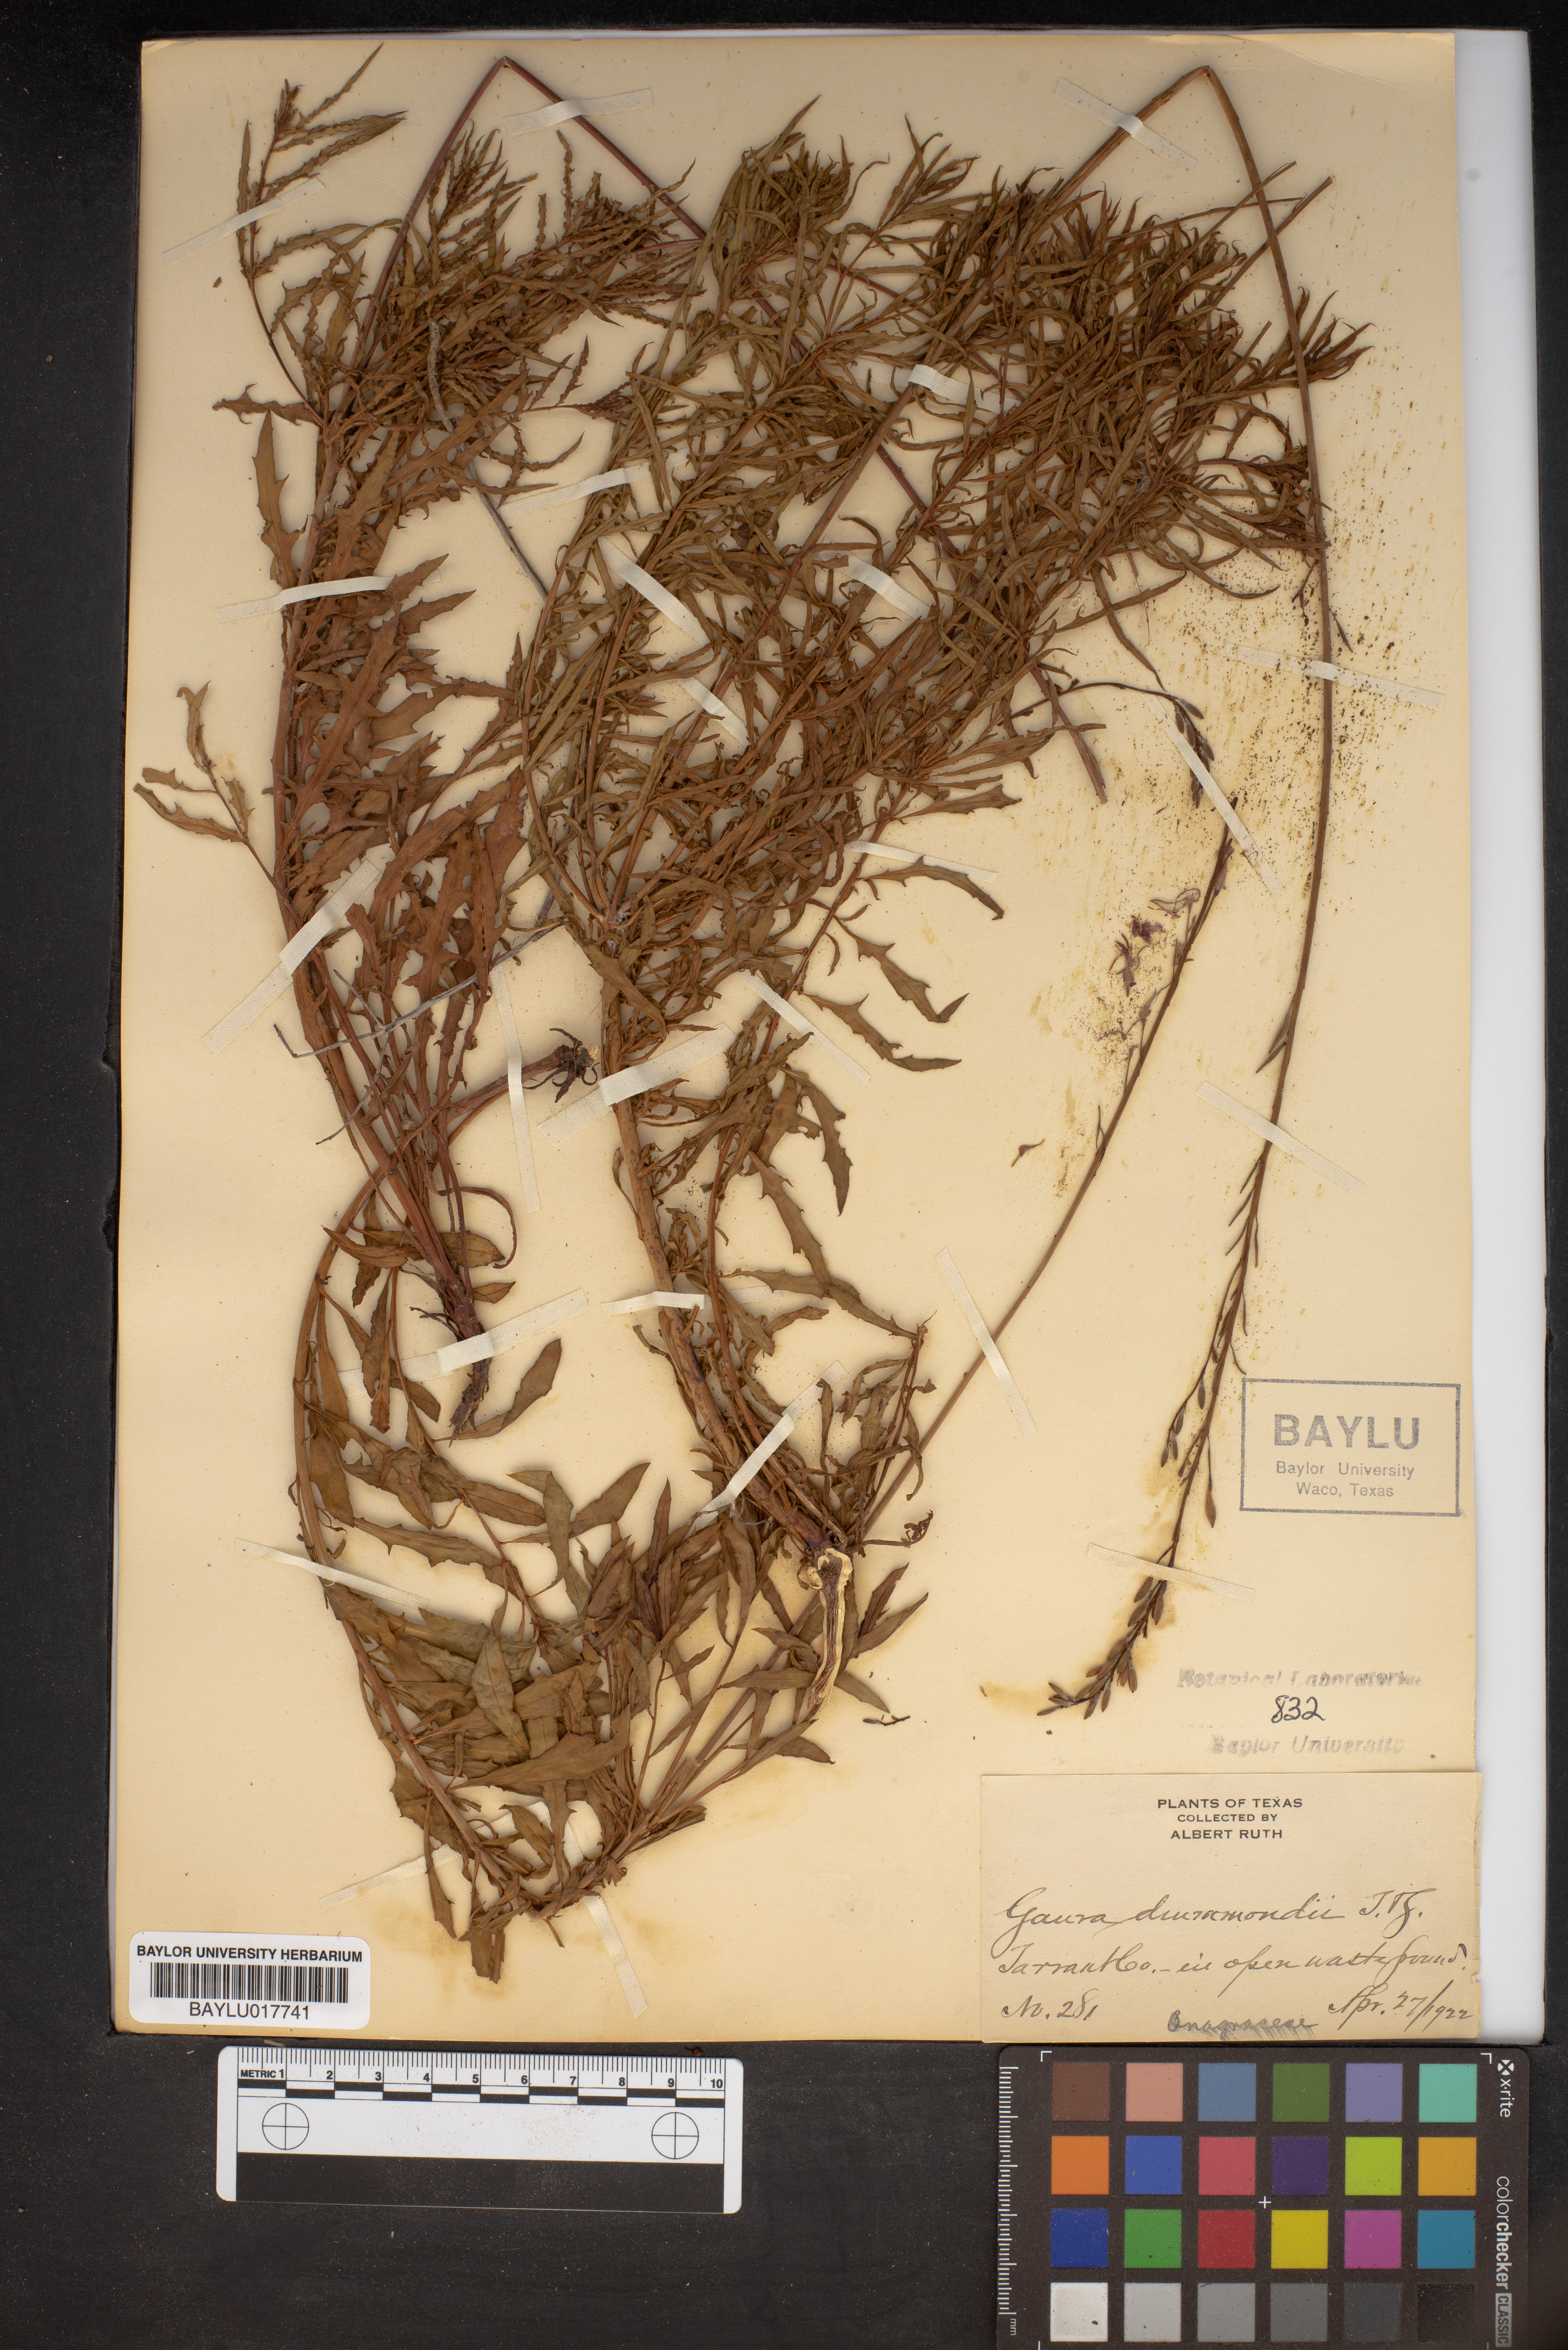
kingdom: Plantae
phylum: Tracheophyta
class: Magnoliopsida
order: Myrtales
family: Onagraceae
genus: Oenothera
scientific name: Oenothera hispida
